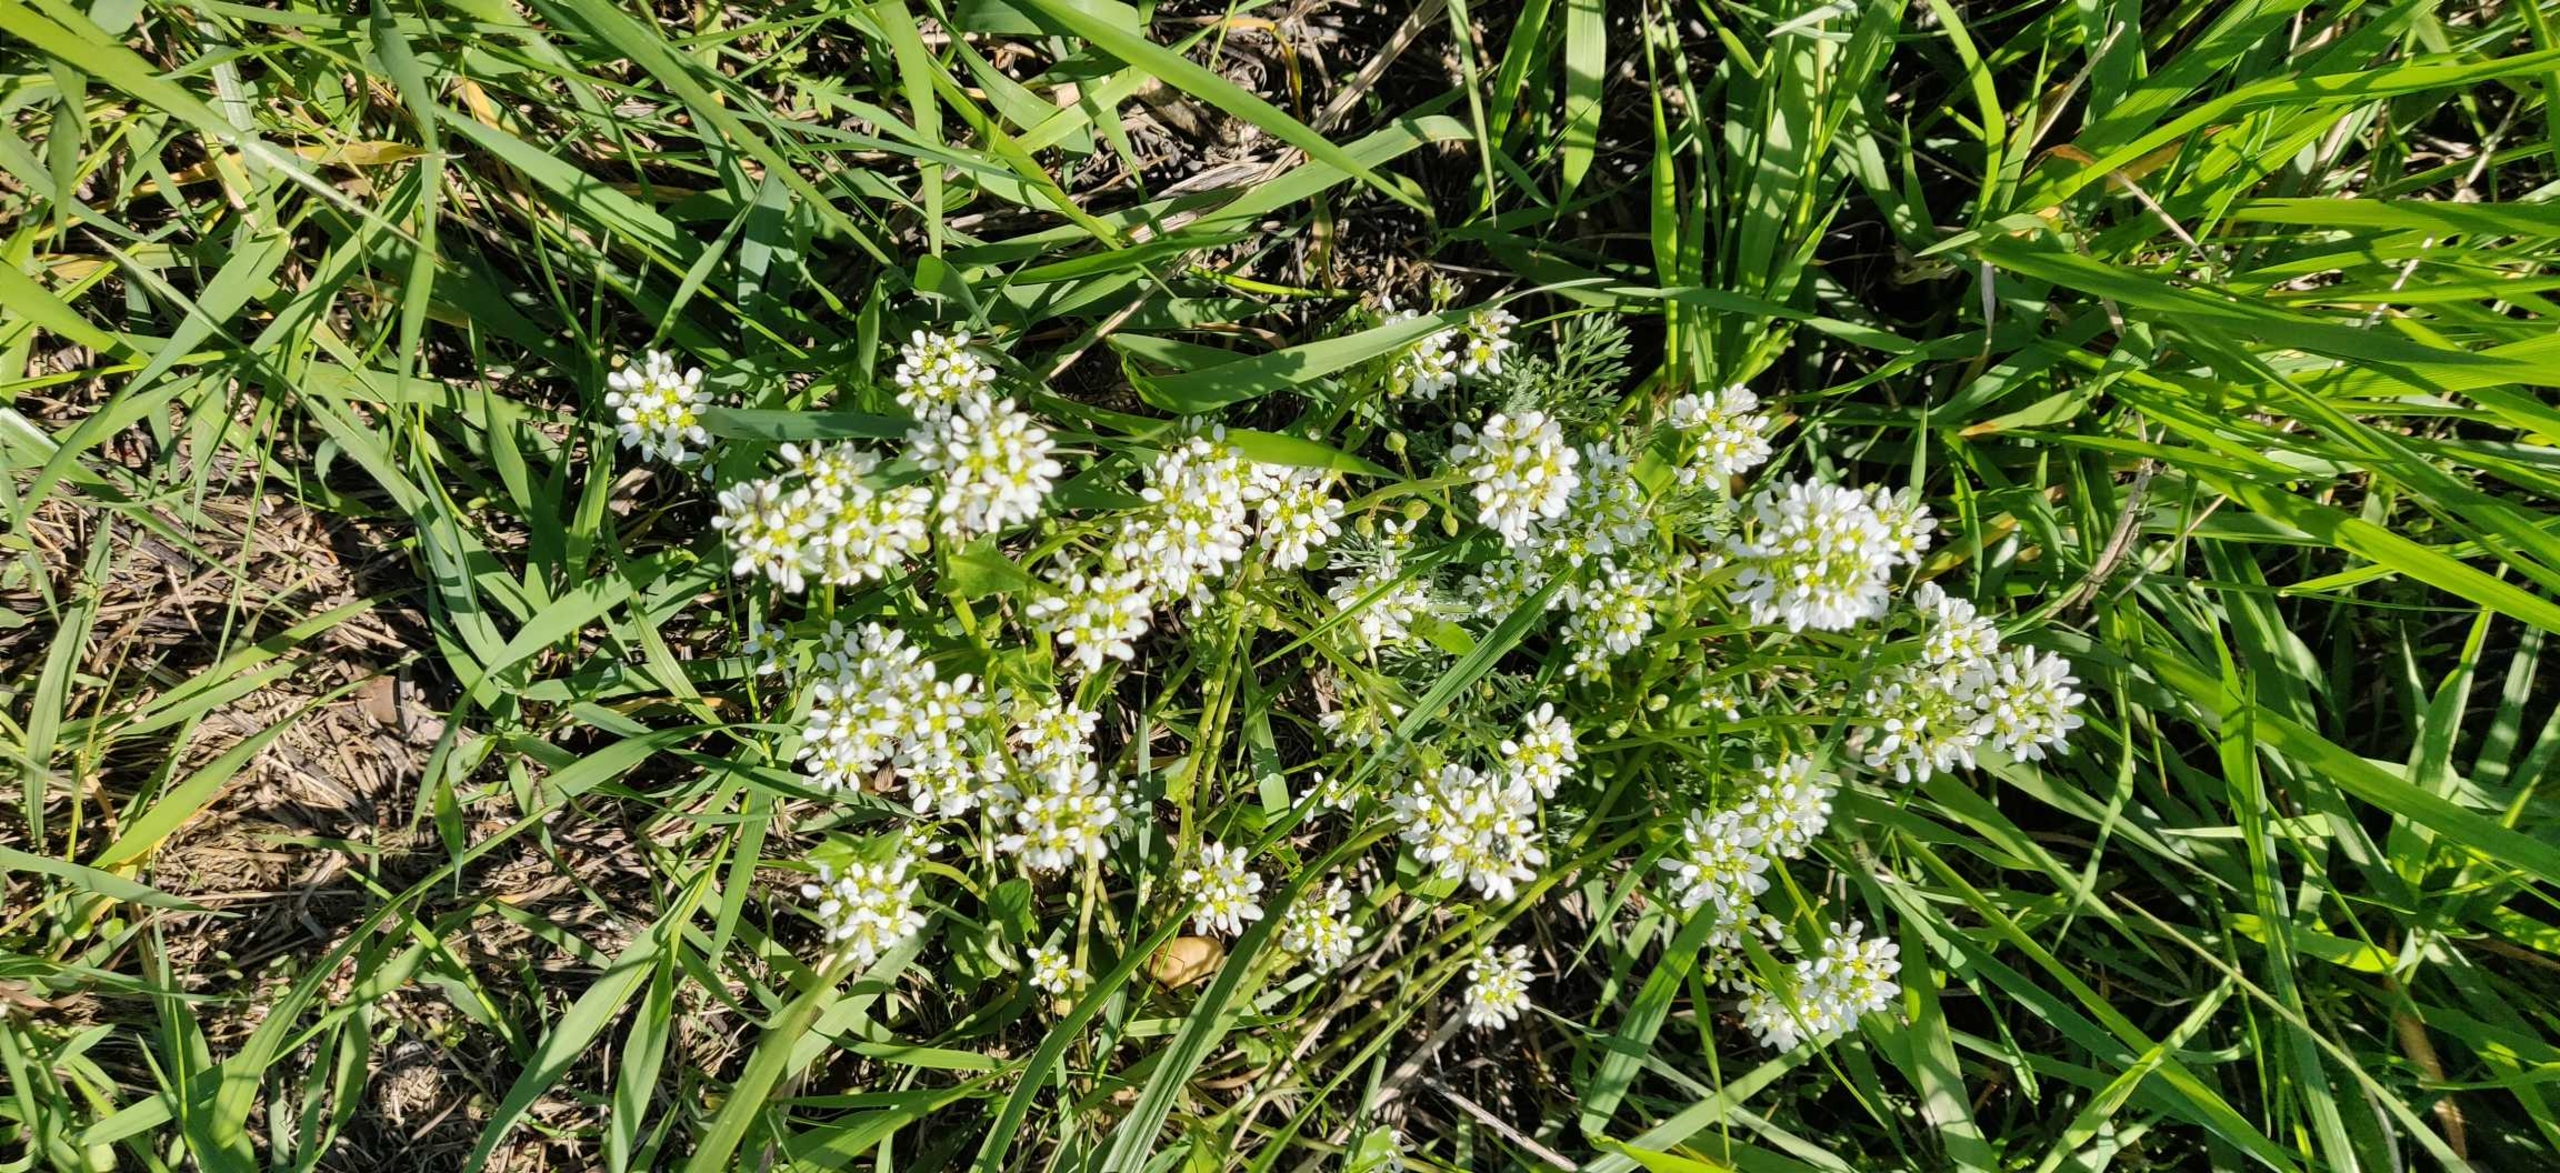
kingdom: Plantae
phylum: Tracheophyta
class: Magnoliopsida
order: Brassicales
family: Brassicaceae
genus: Cochlearia
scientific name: Cochlearia officinalis
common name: Læge-kokleare (underart)
